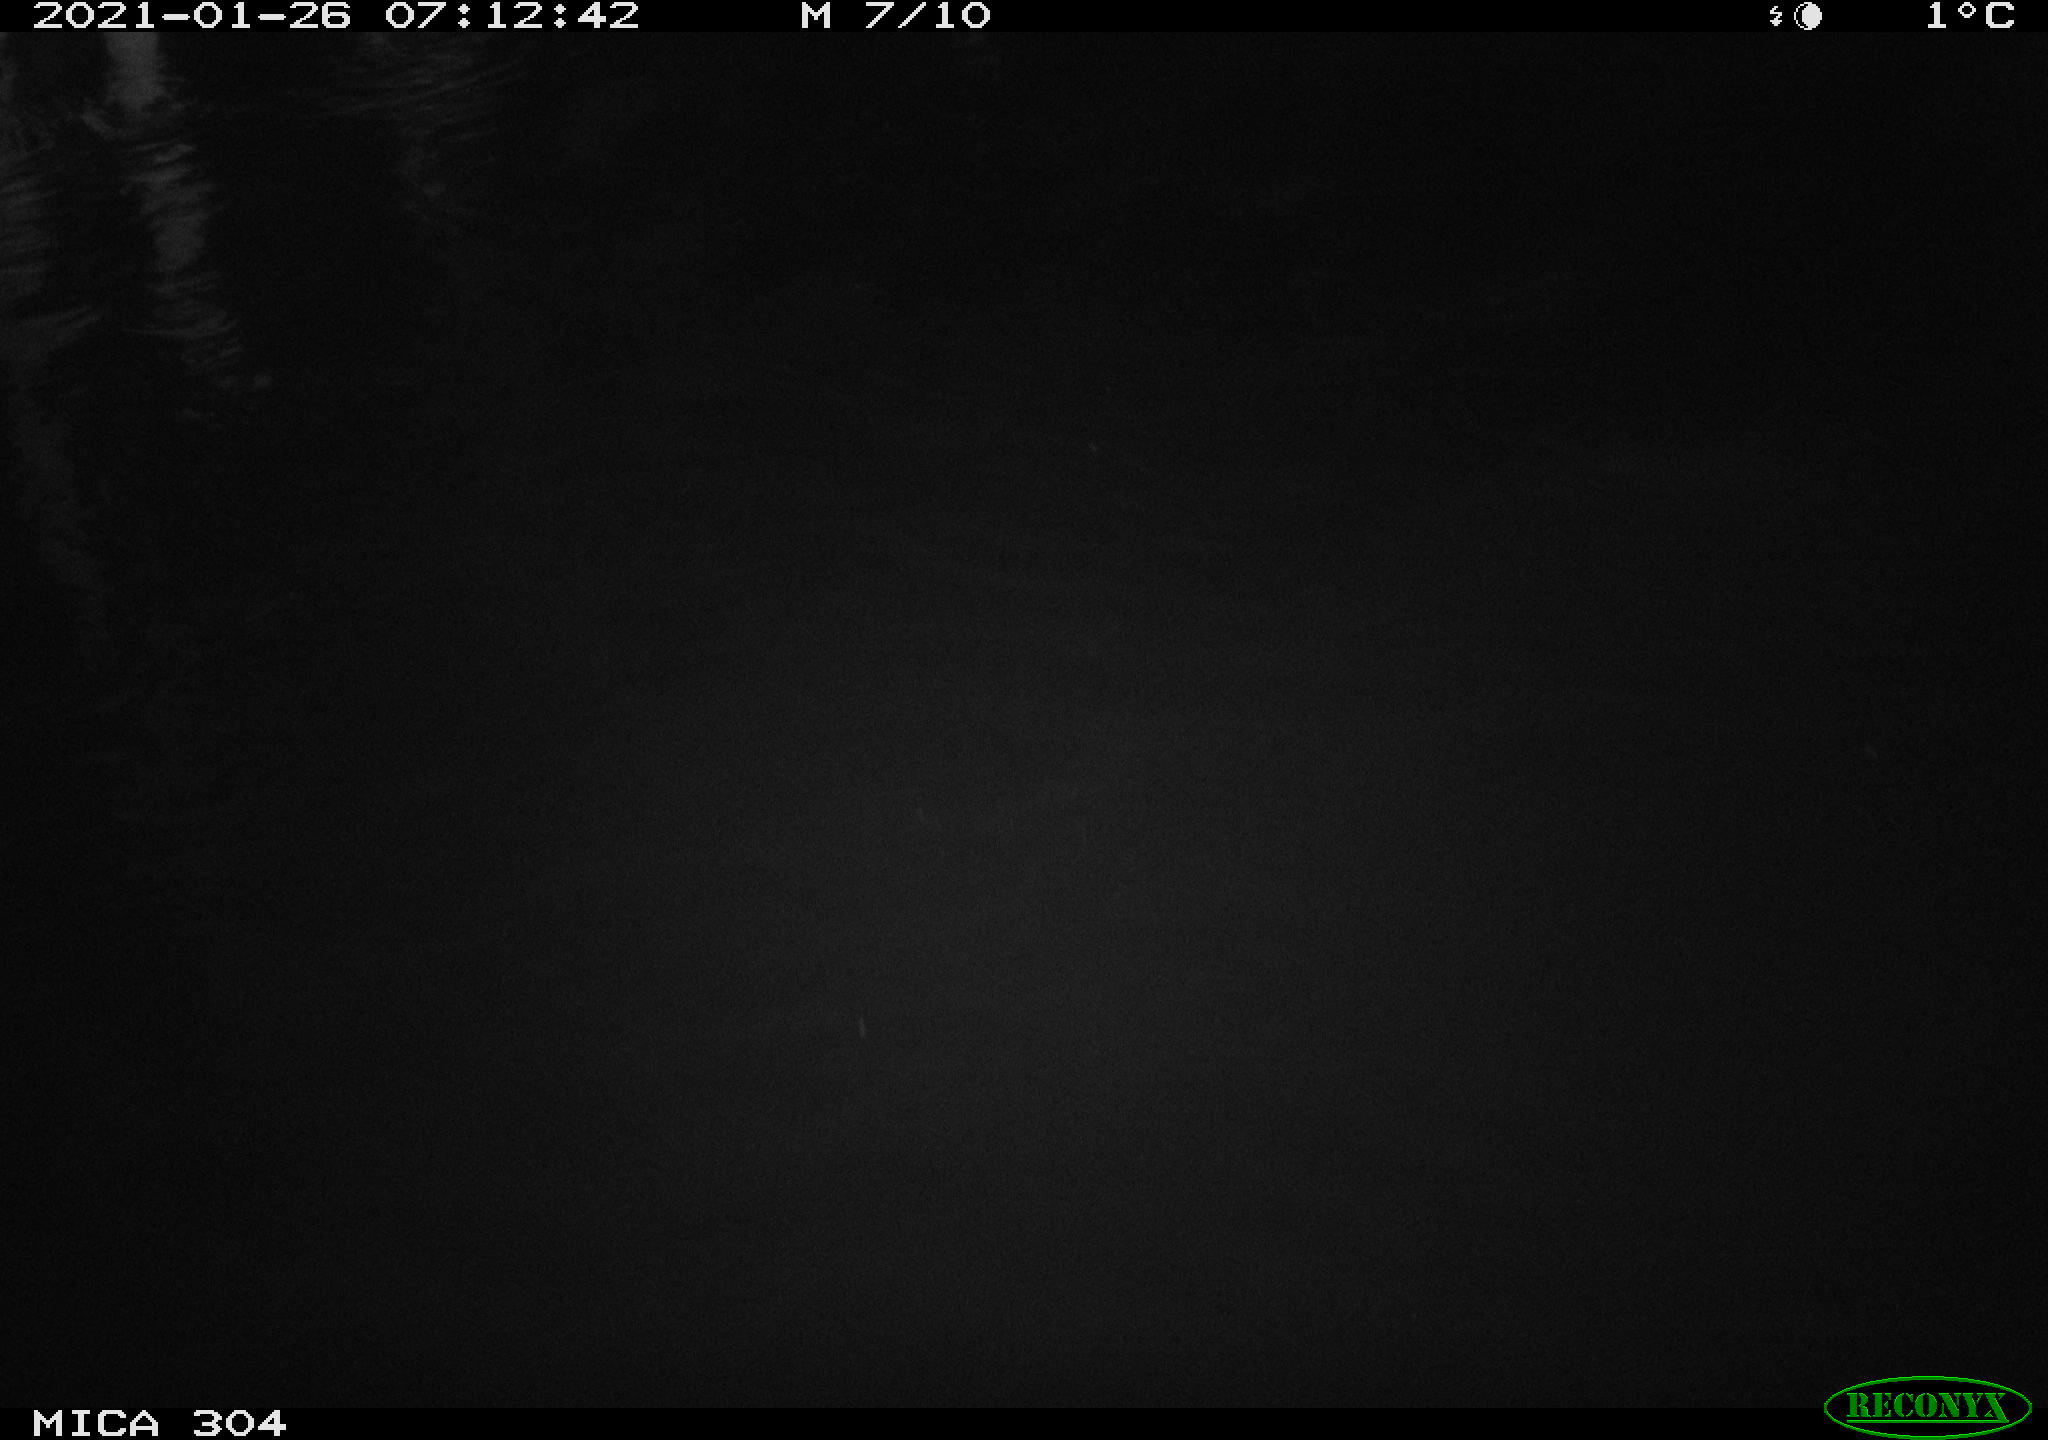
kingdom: Animalia
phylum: Chordata
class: Aves
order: Gruiformes
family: Rallidae
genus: Fulica
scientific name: Fulica atra
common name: Eurasian coot
